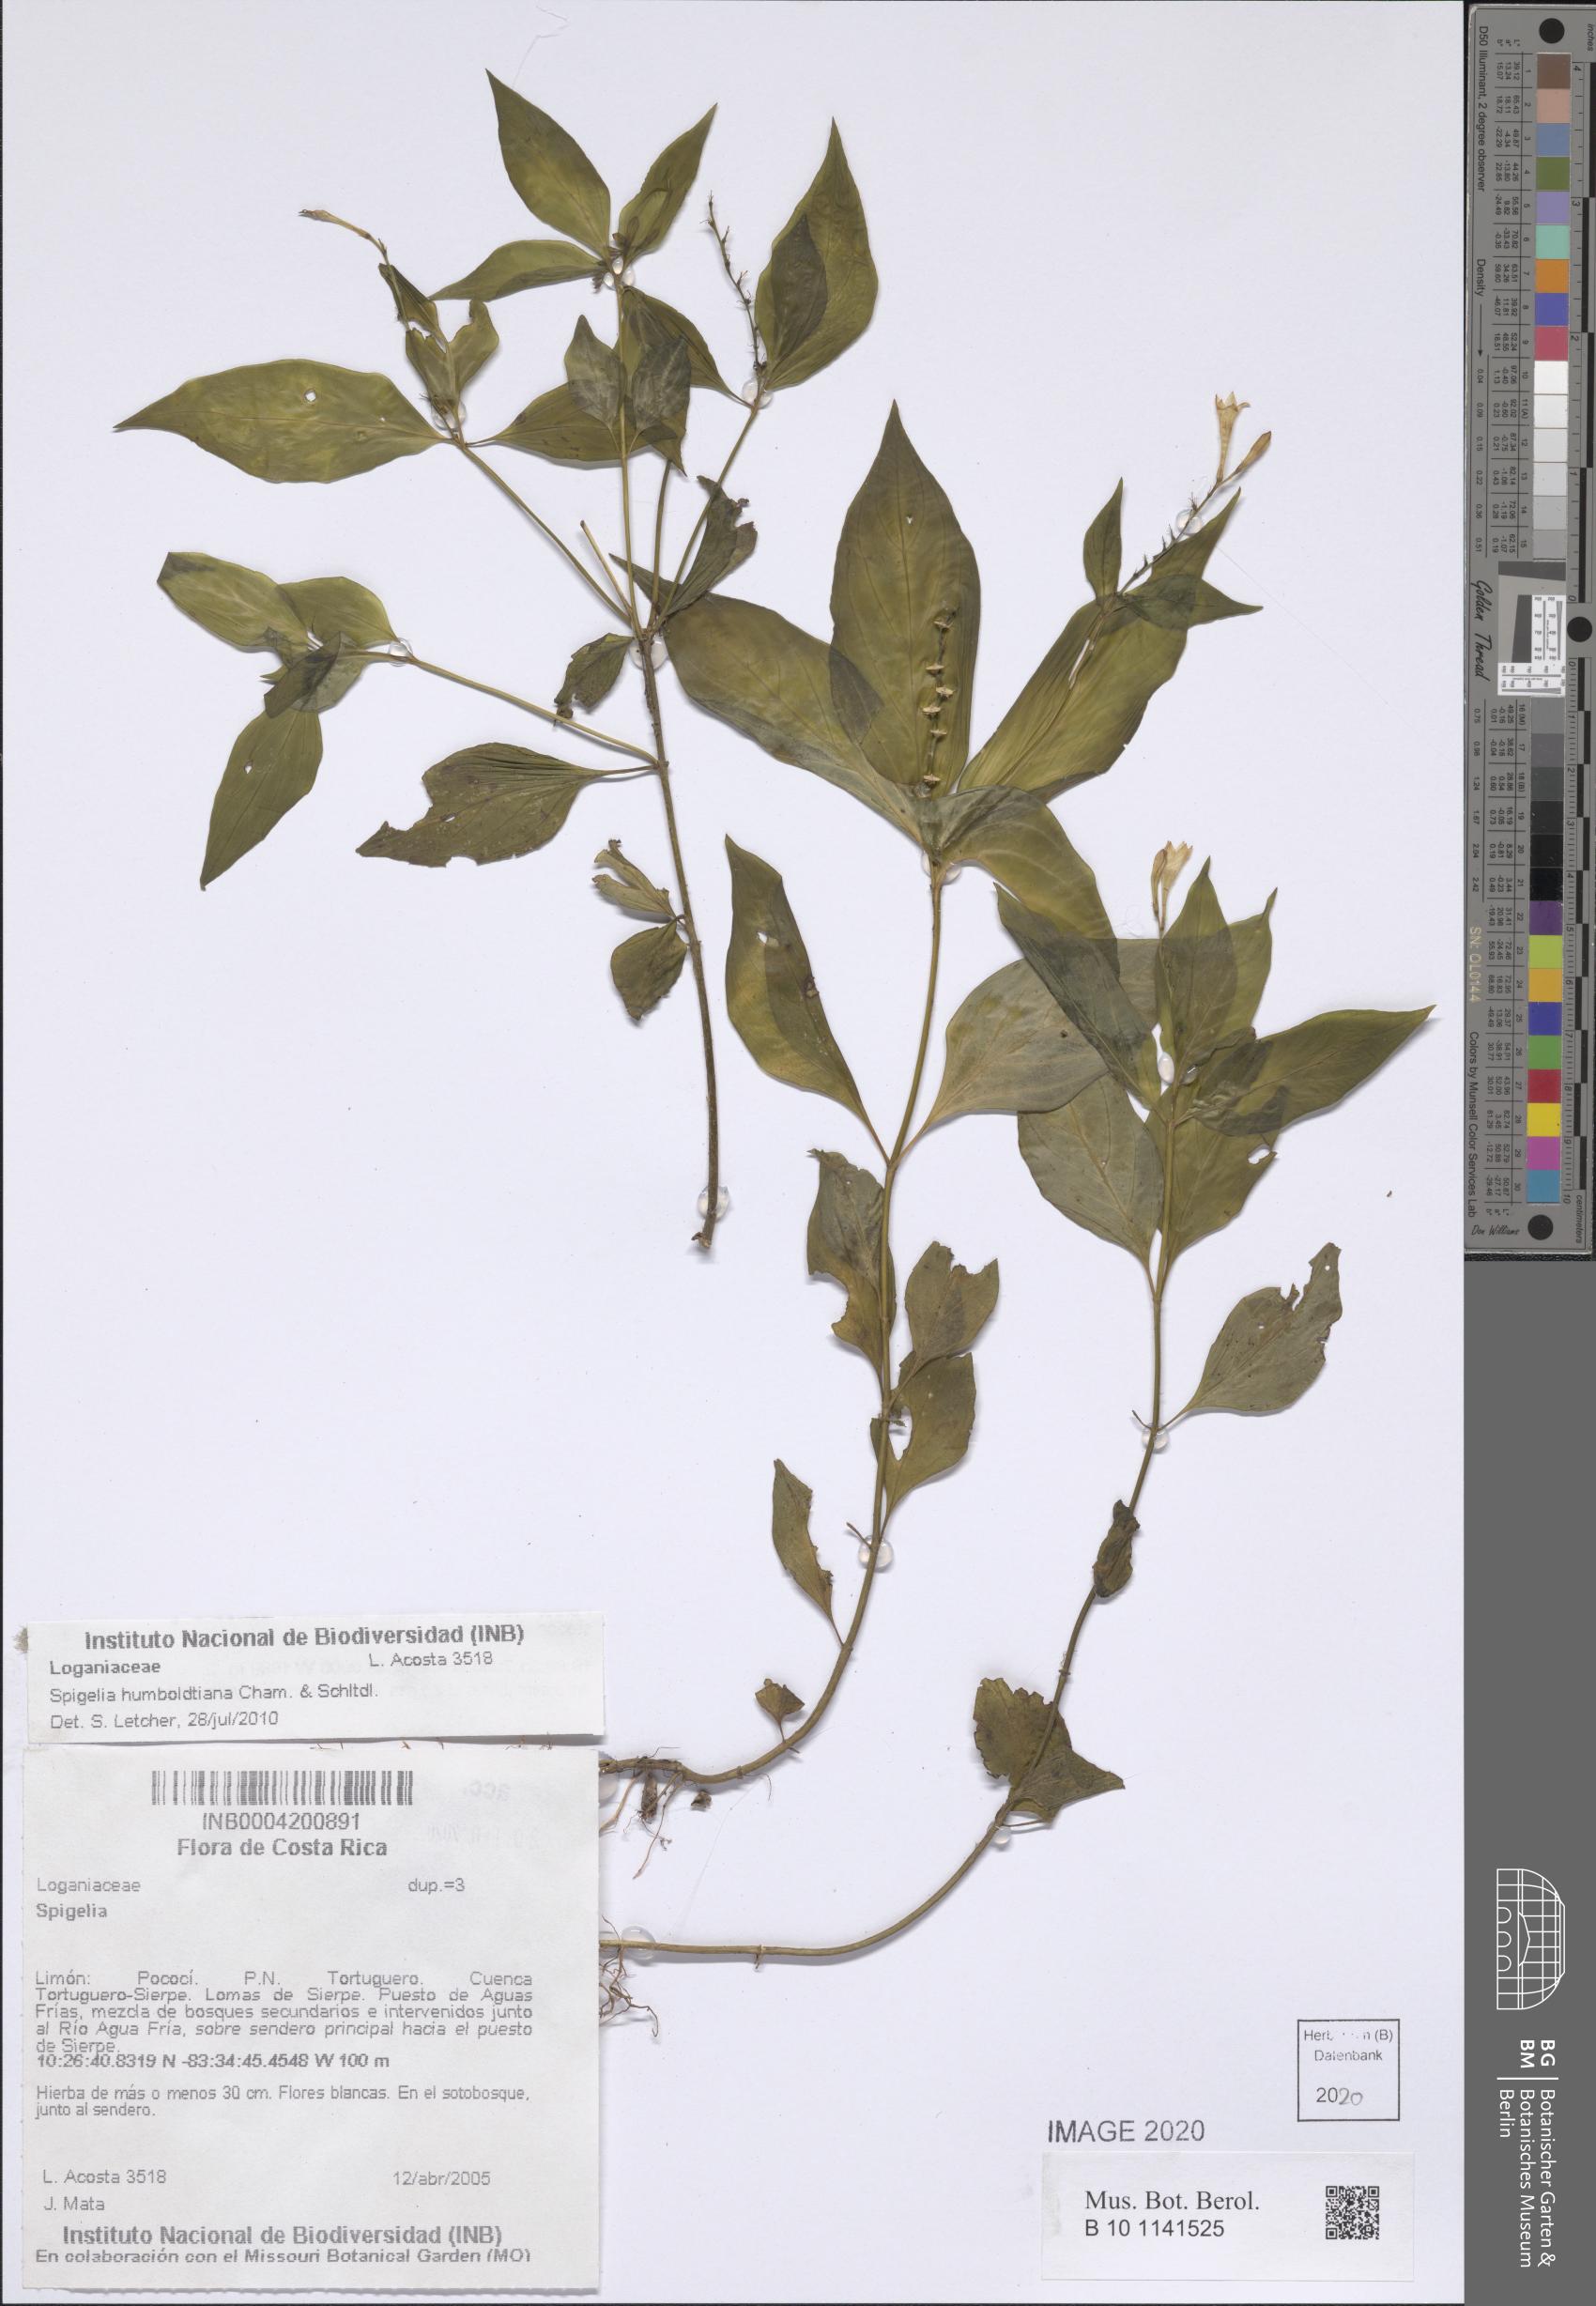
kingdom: Plantae
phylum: Tracheophyta
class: Magnoliopsida
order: Gentianales
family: Loganiaceae
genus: Spigelia
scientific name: Spigelia humboldtiana
